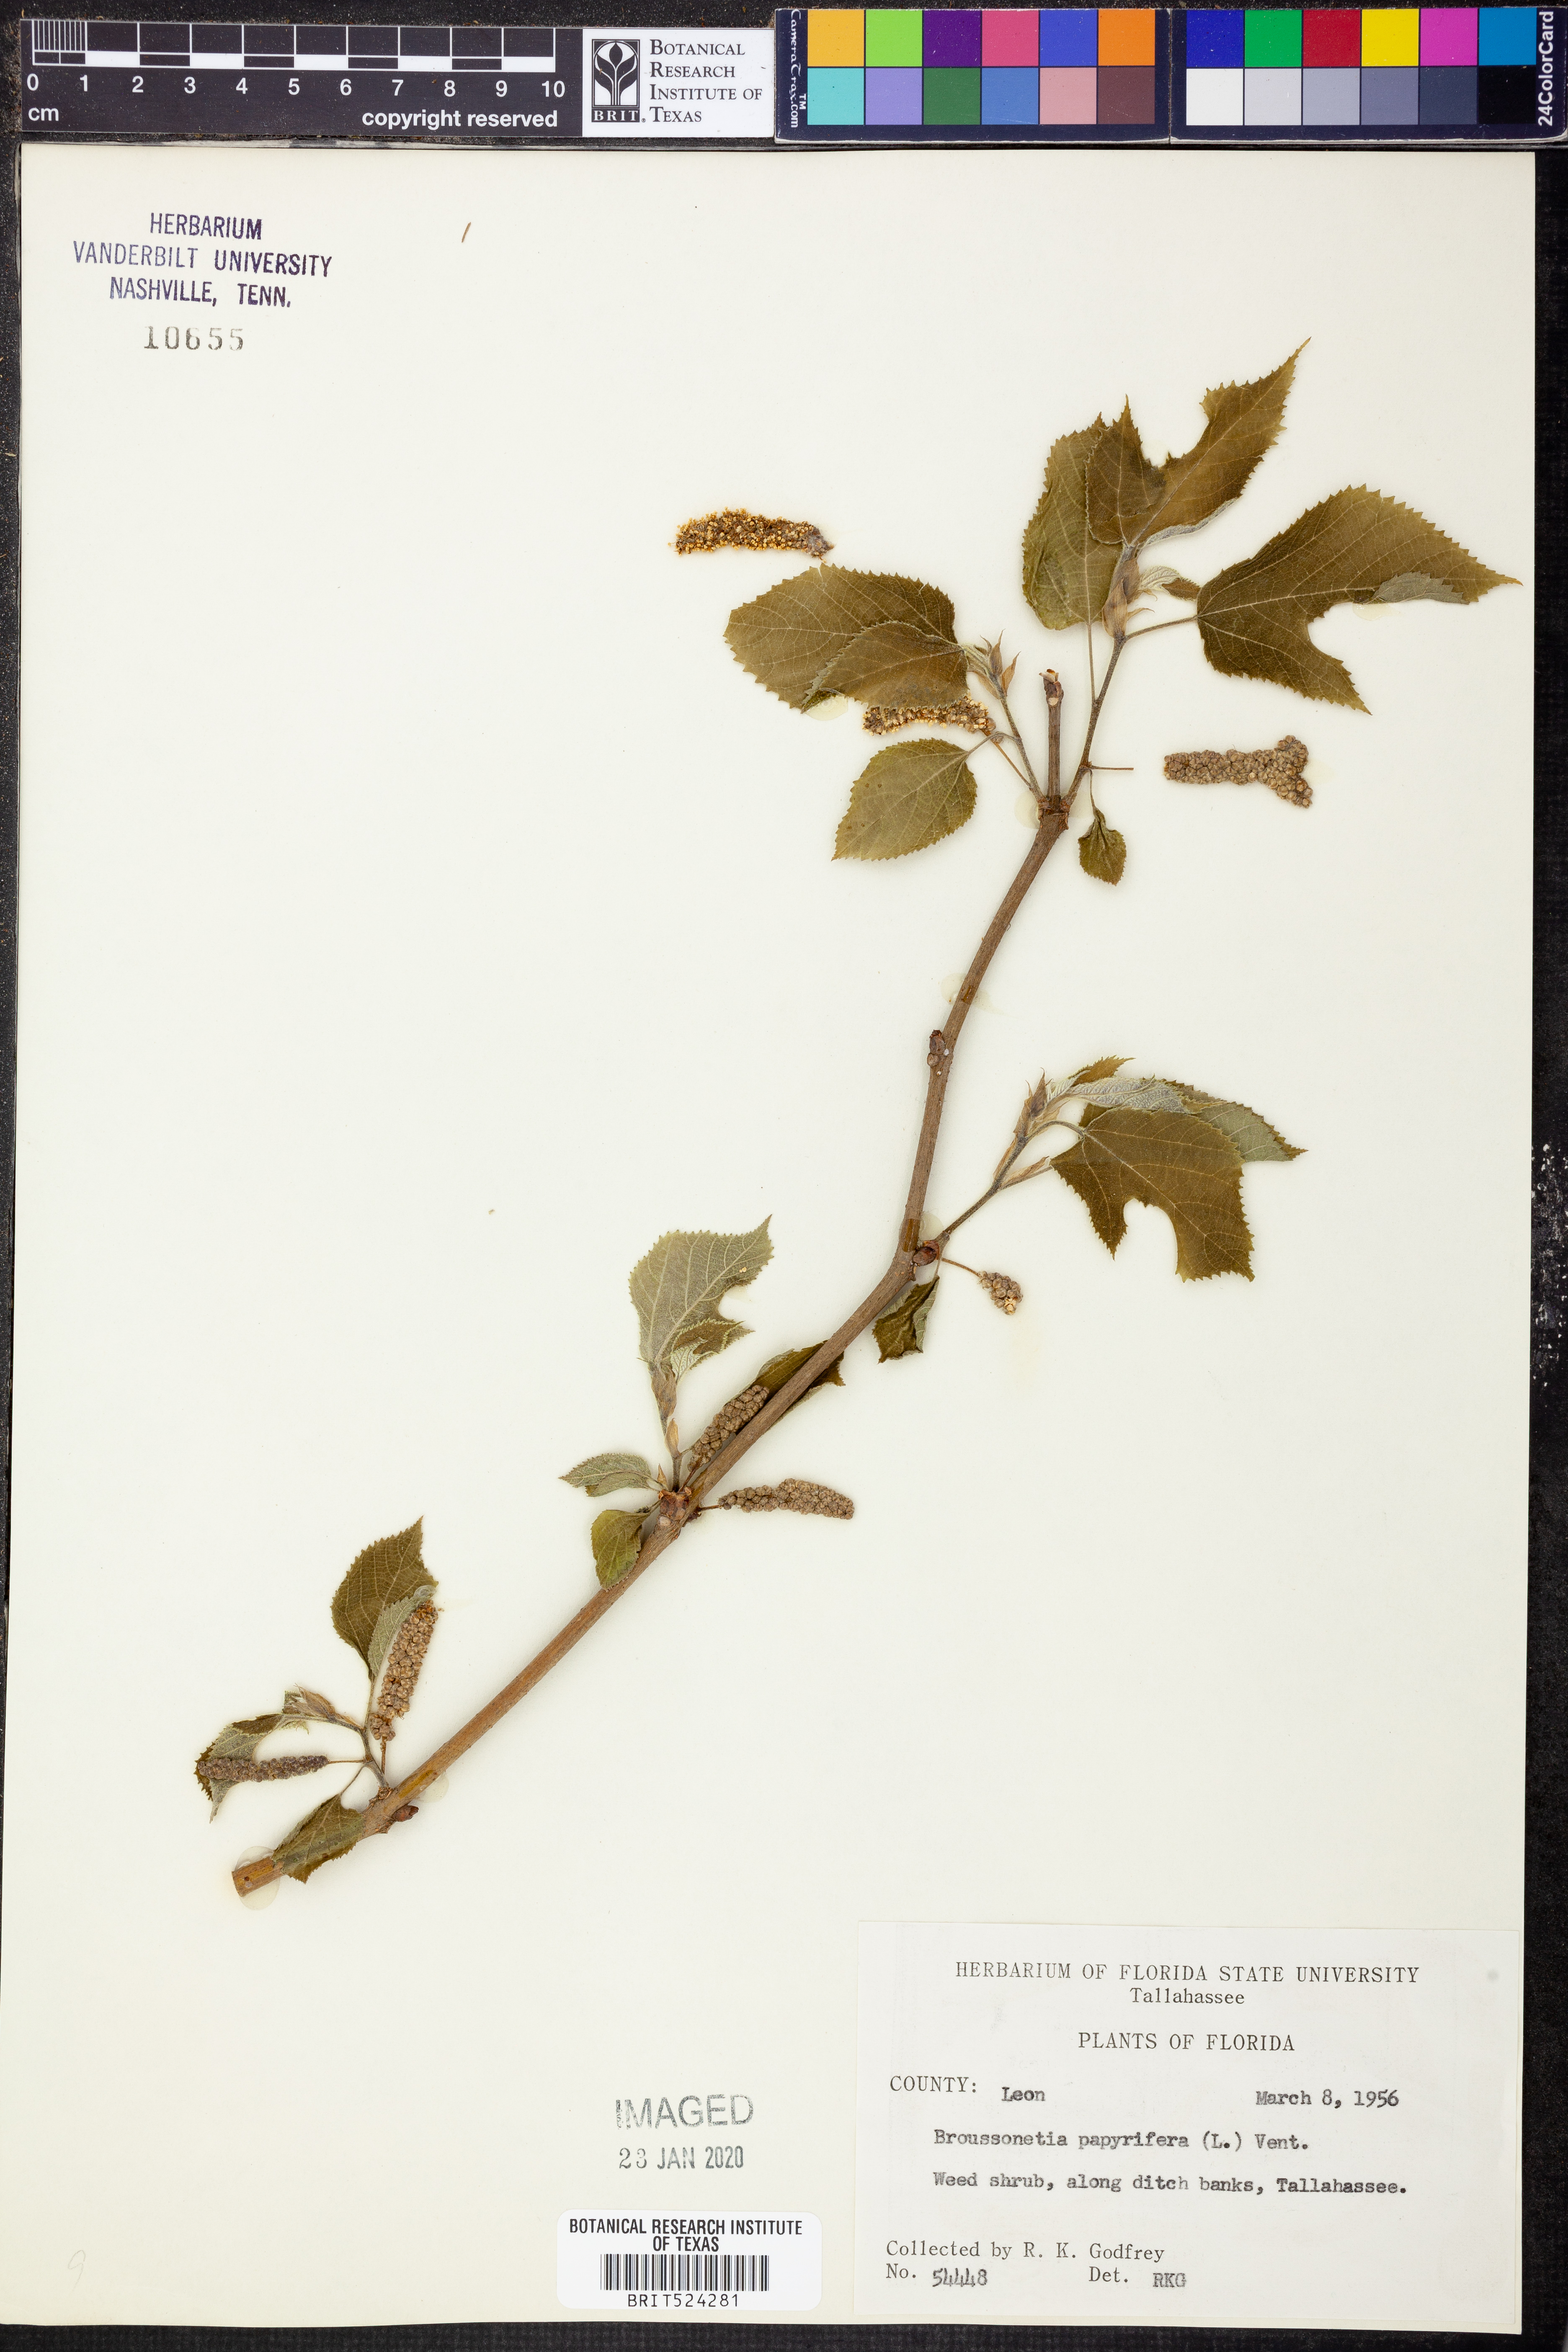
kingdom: Plantae
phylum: Tracheophyta
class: Magnoliopsida
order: Rosales
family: Moraceae
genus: Broussonetia
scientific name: Broussonetia papyrifera
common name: Paper mulberry
